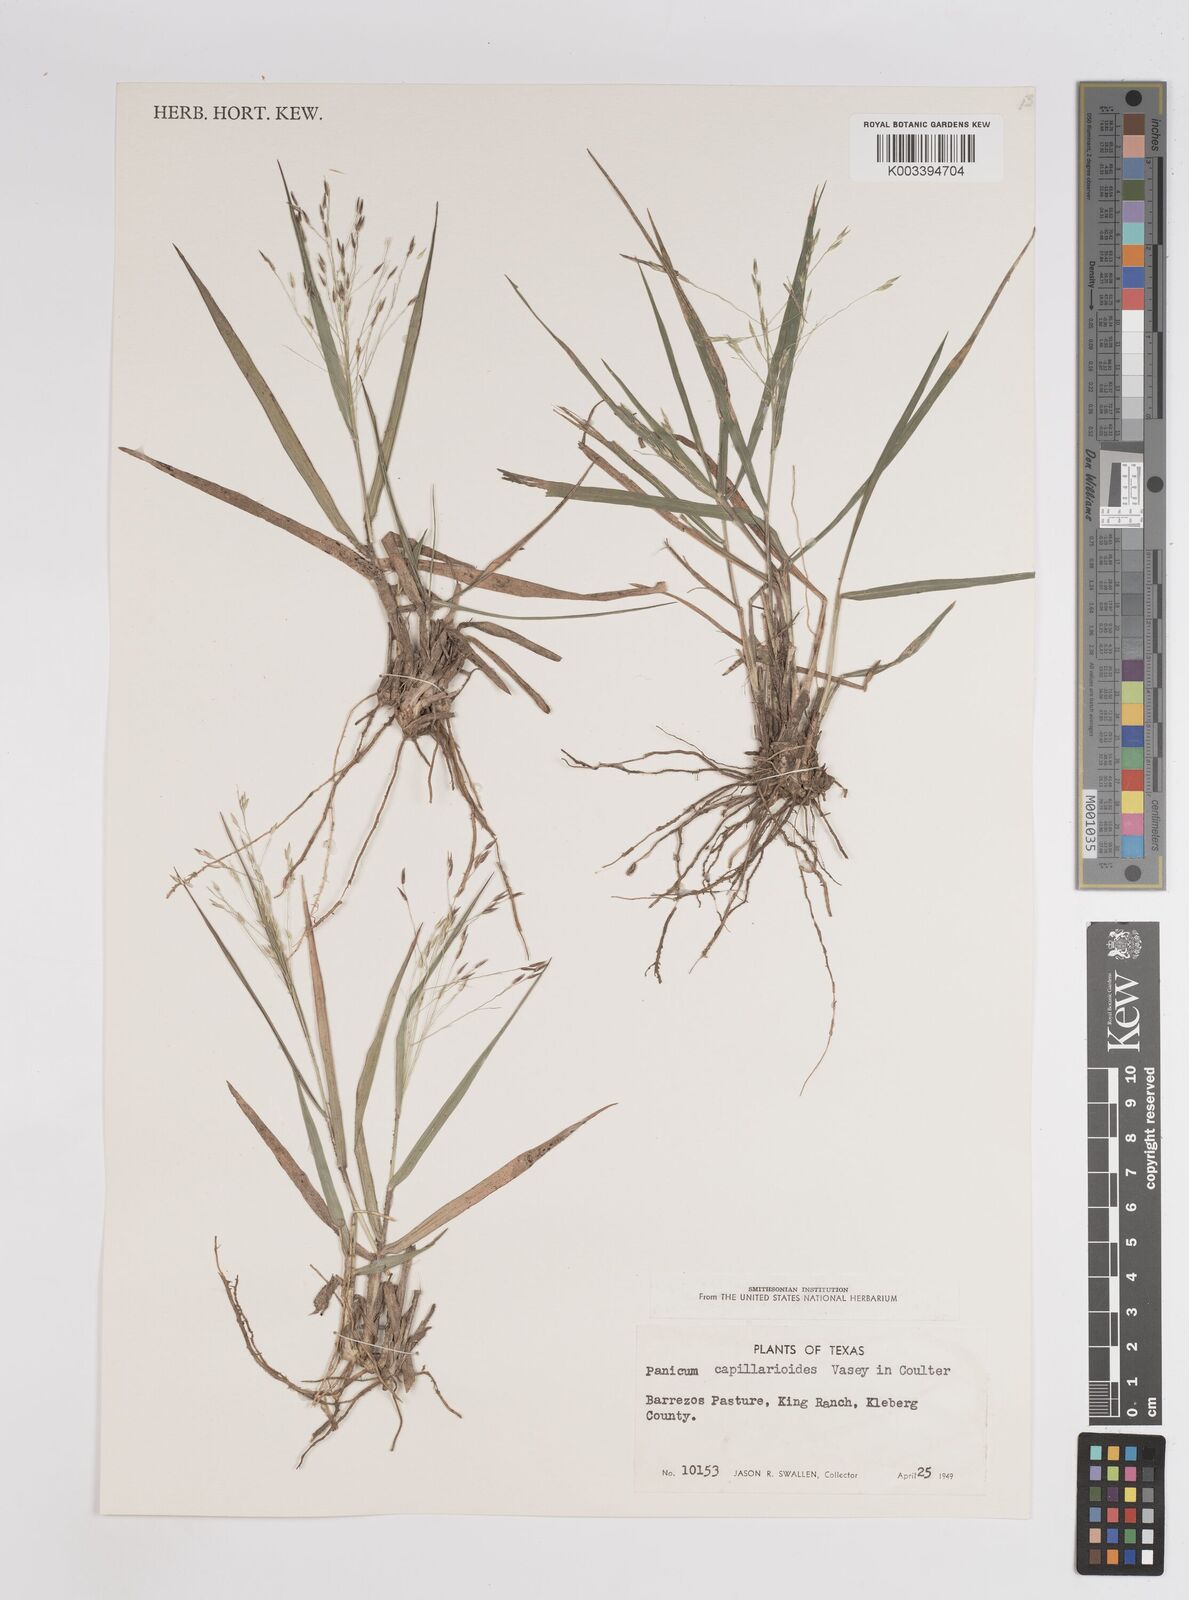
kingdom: Plantae
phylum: Tracheophyta
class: Liliopsida
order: Poales
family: Poaceae
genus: Panicum
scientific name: Panicum capillarioides
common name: Long-beak witchgrass
